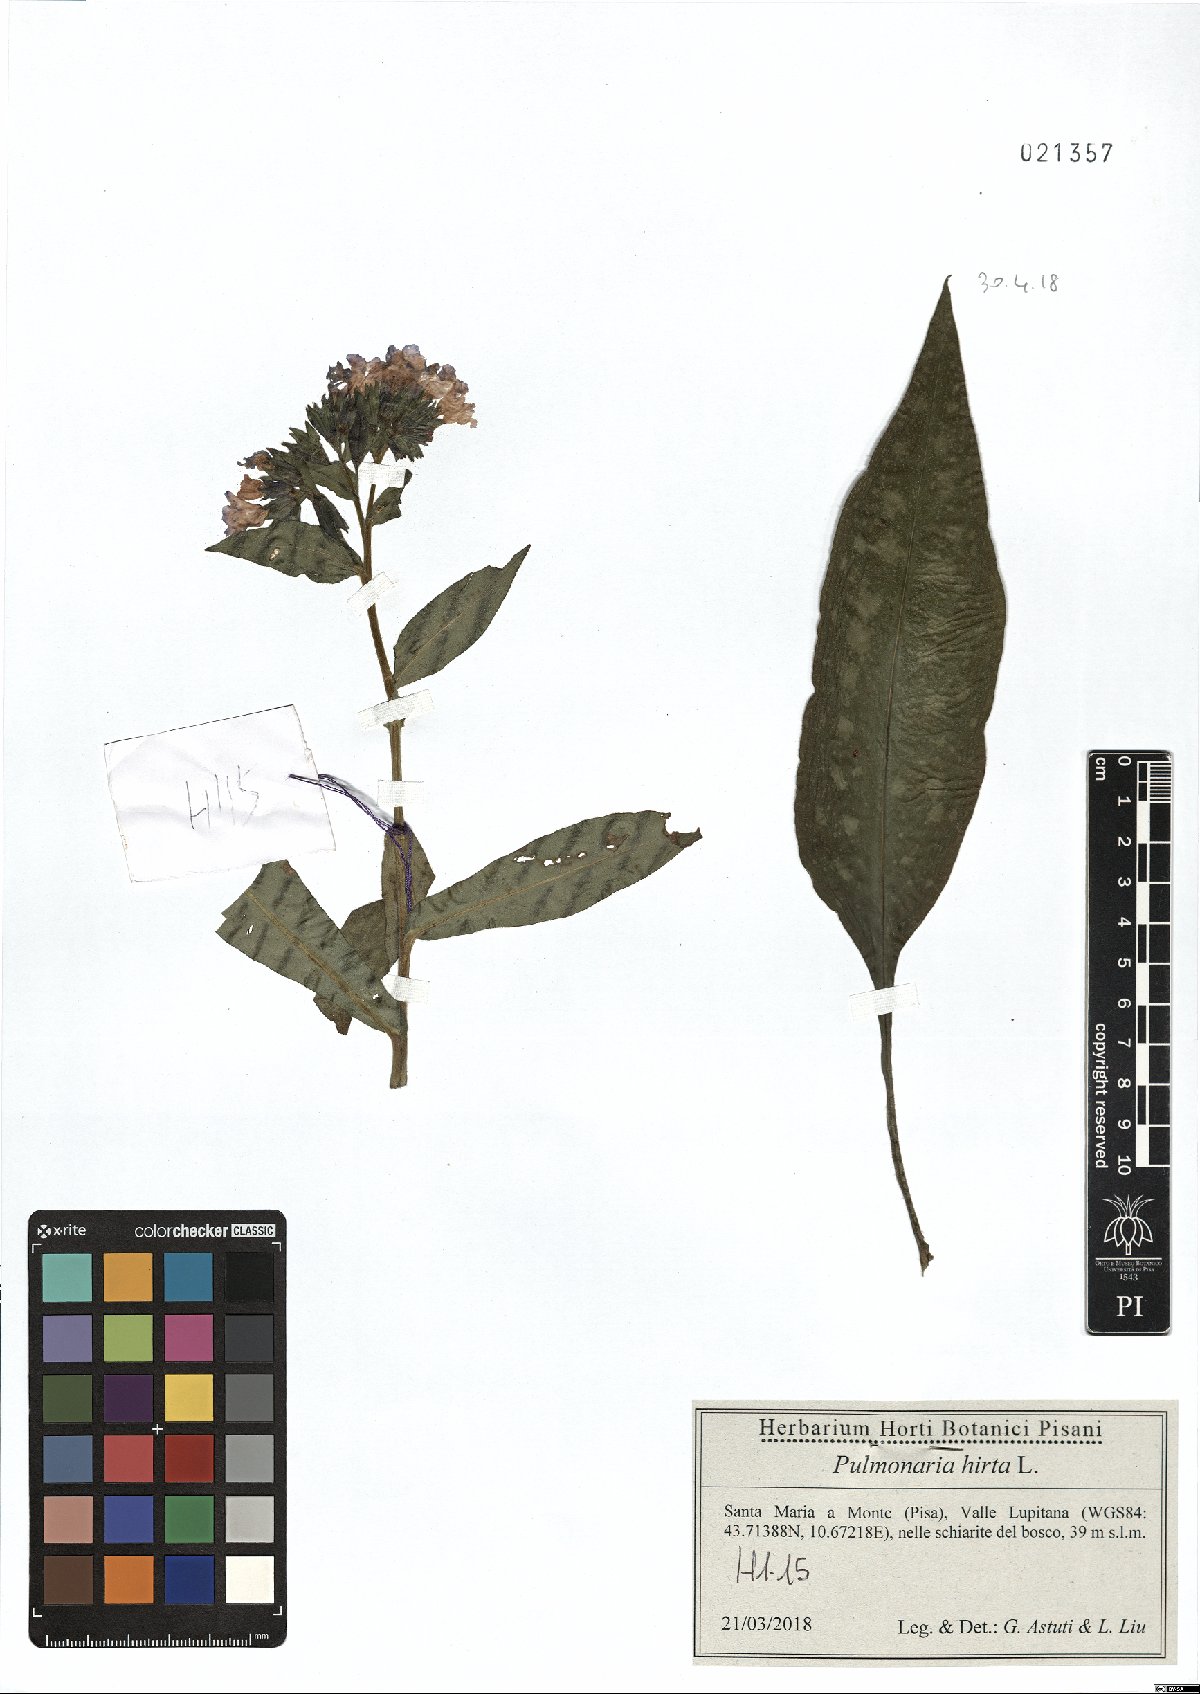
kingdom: Plantae
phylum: Tracheophyta
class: Magnoliopsida
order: Boraginales
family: Boraginaceae
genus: Pulmonaria
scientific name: Pulmonaria hirta
